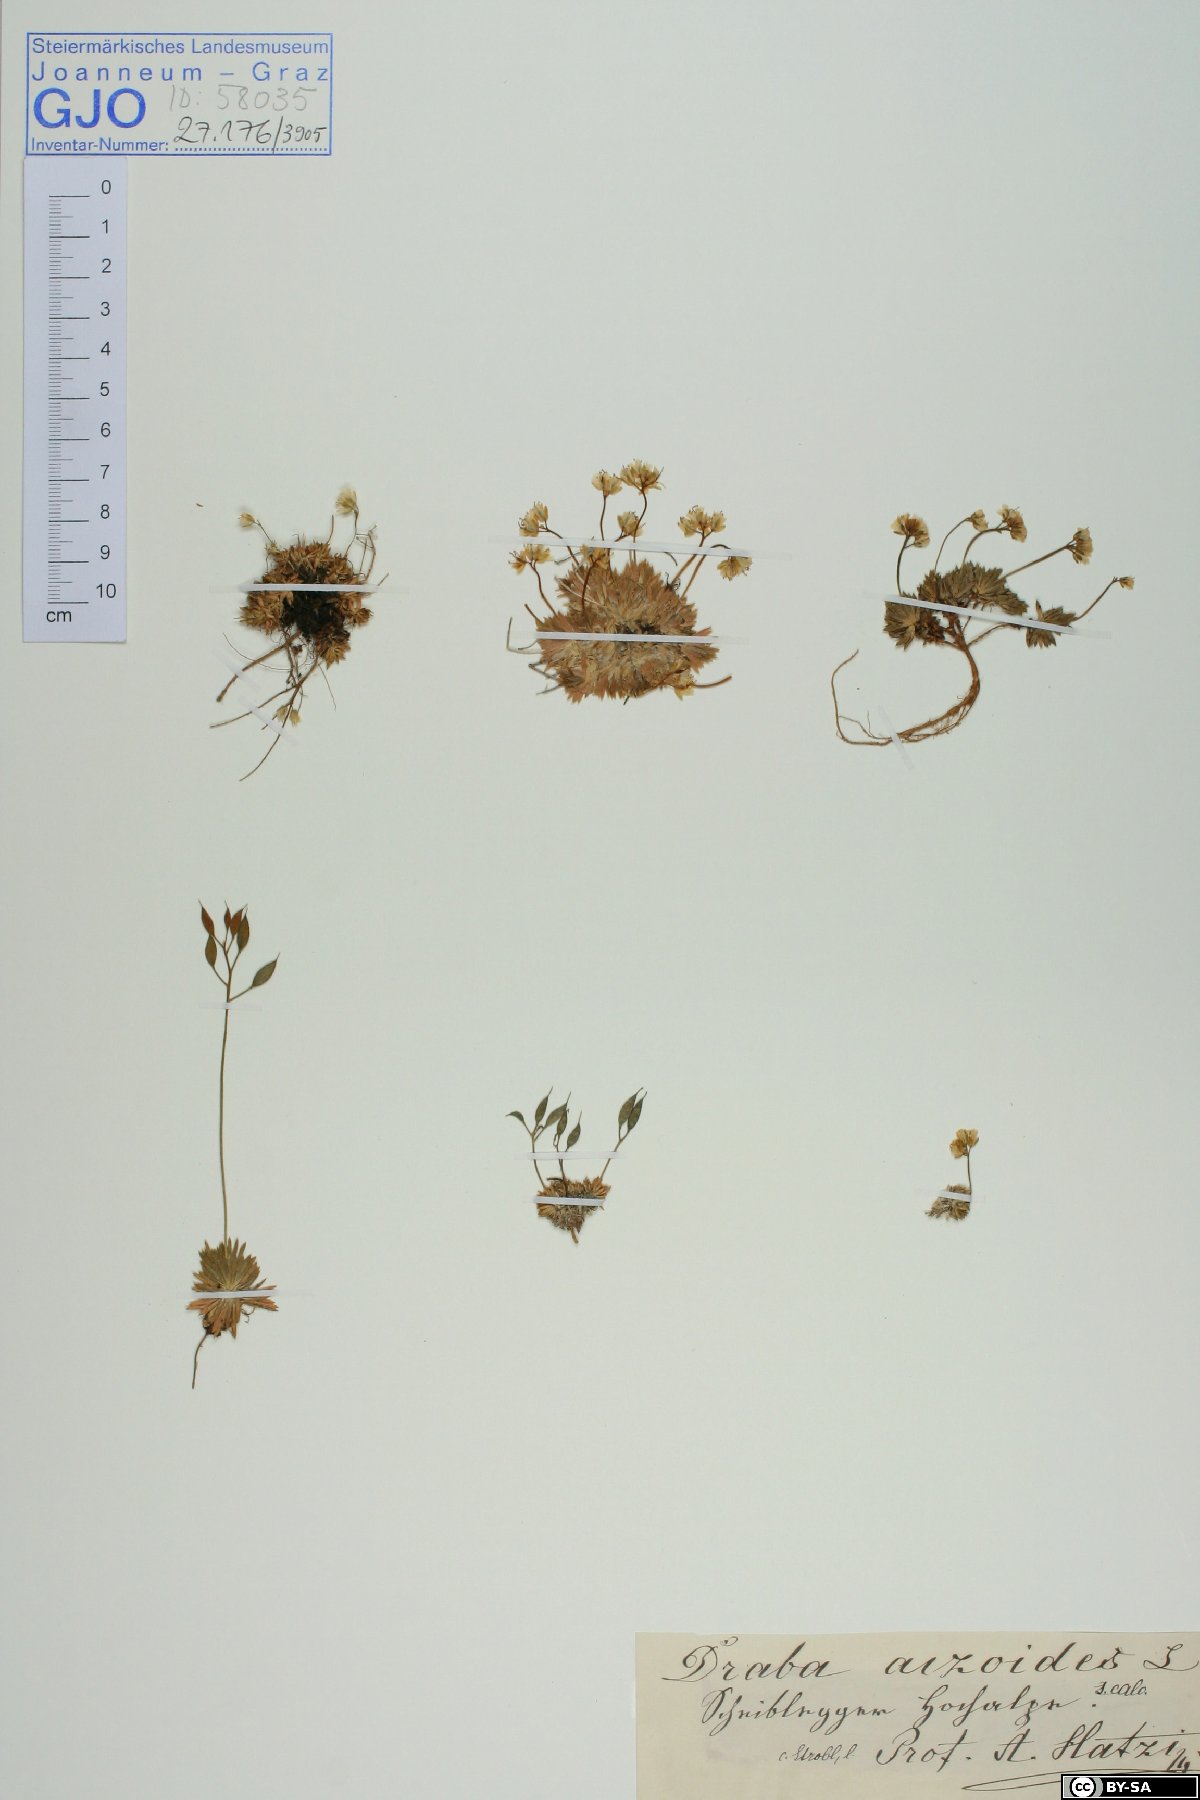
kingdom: Plantae
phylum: Tracheophyta
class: Magnoliopsida
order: Brassicales
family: Brassicaceae
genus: Draba
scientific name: Draba aizoides
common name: Yellow whitlowgrass
